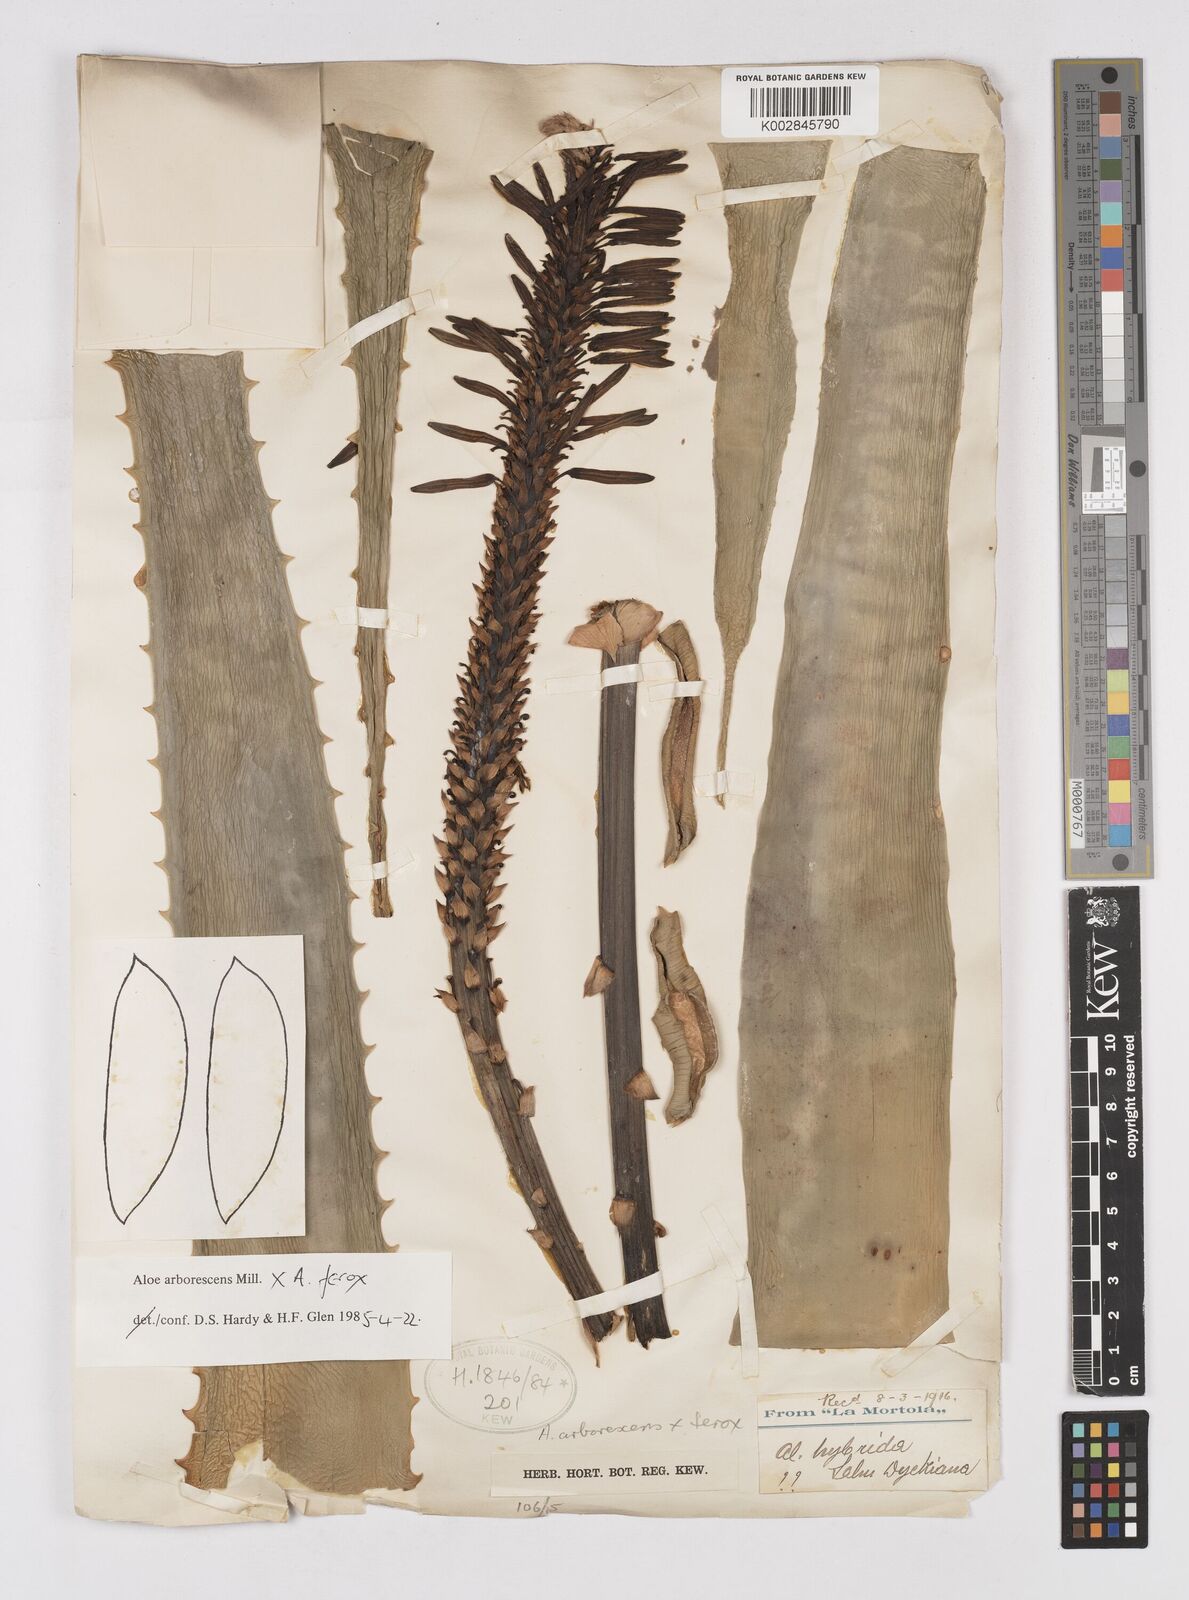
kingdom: Plantae
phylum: Tracheophyta
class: Liliopsida
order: Asparagales
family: Asphodelaceae
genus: Aloe
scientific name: Aloe arborescens
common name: Candelabra aloe
